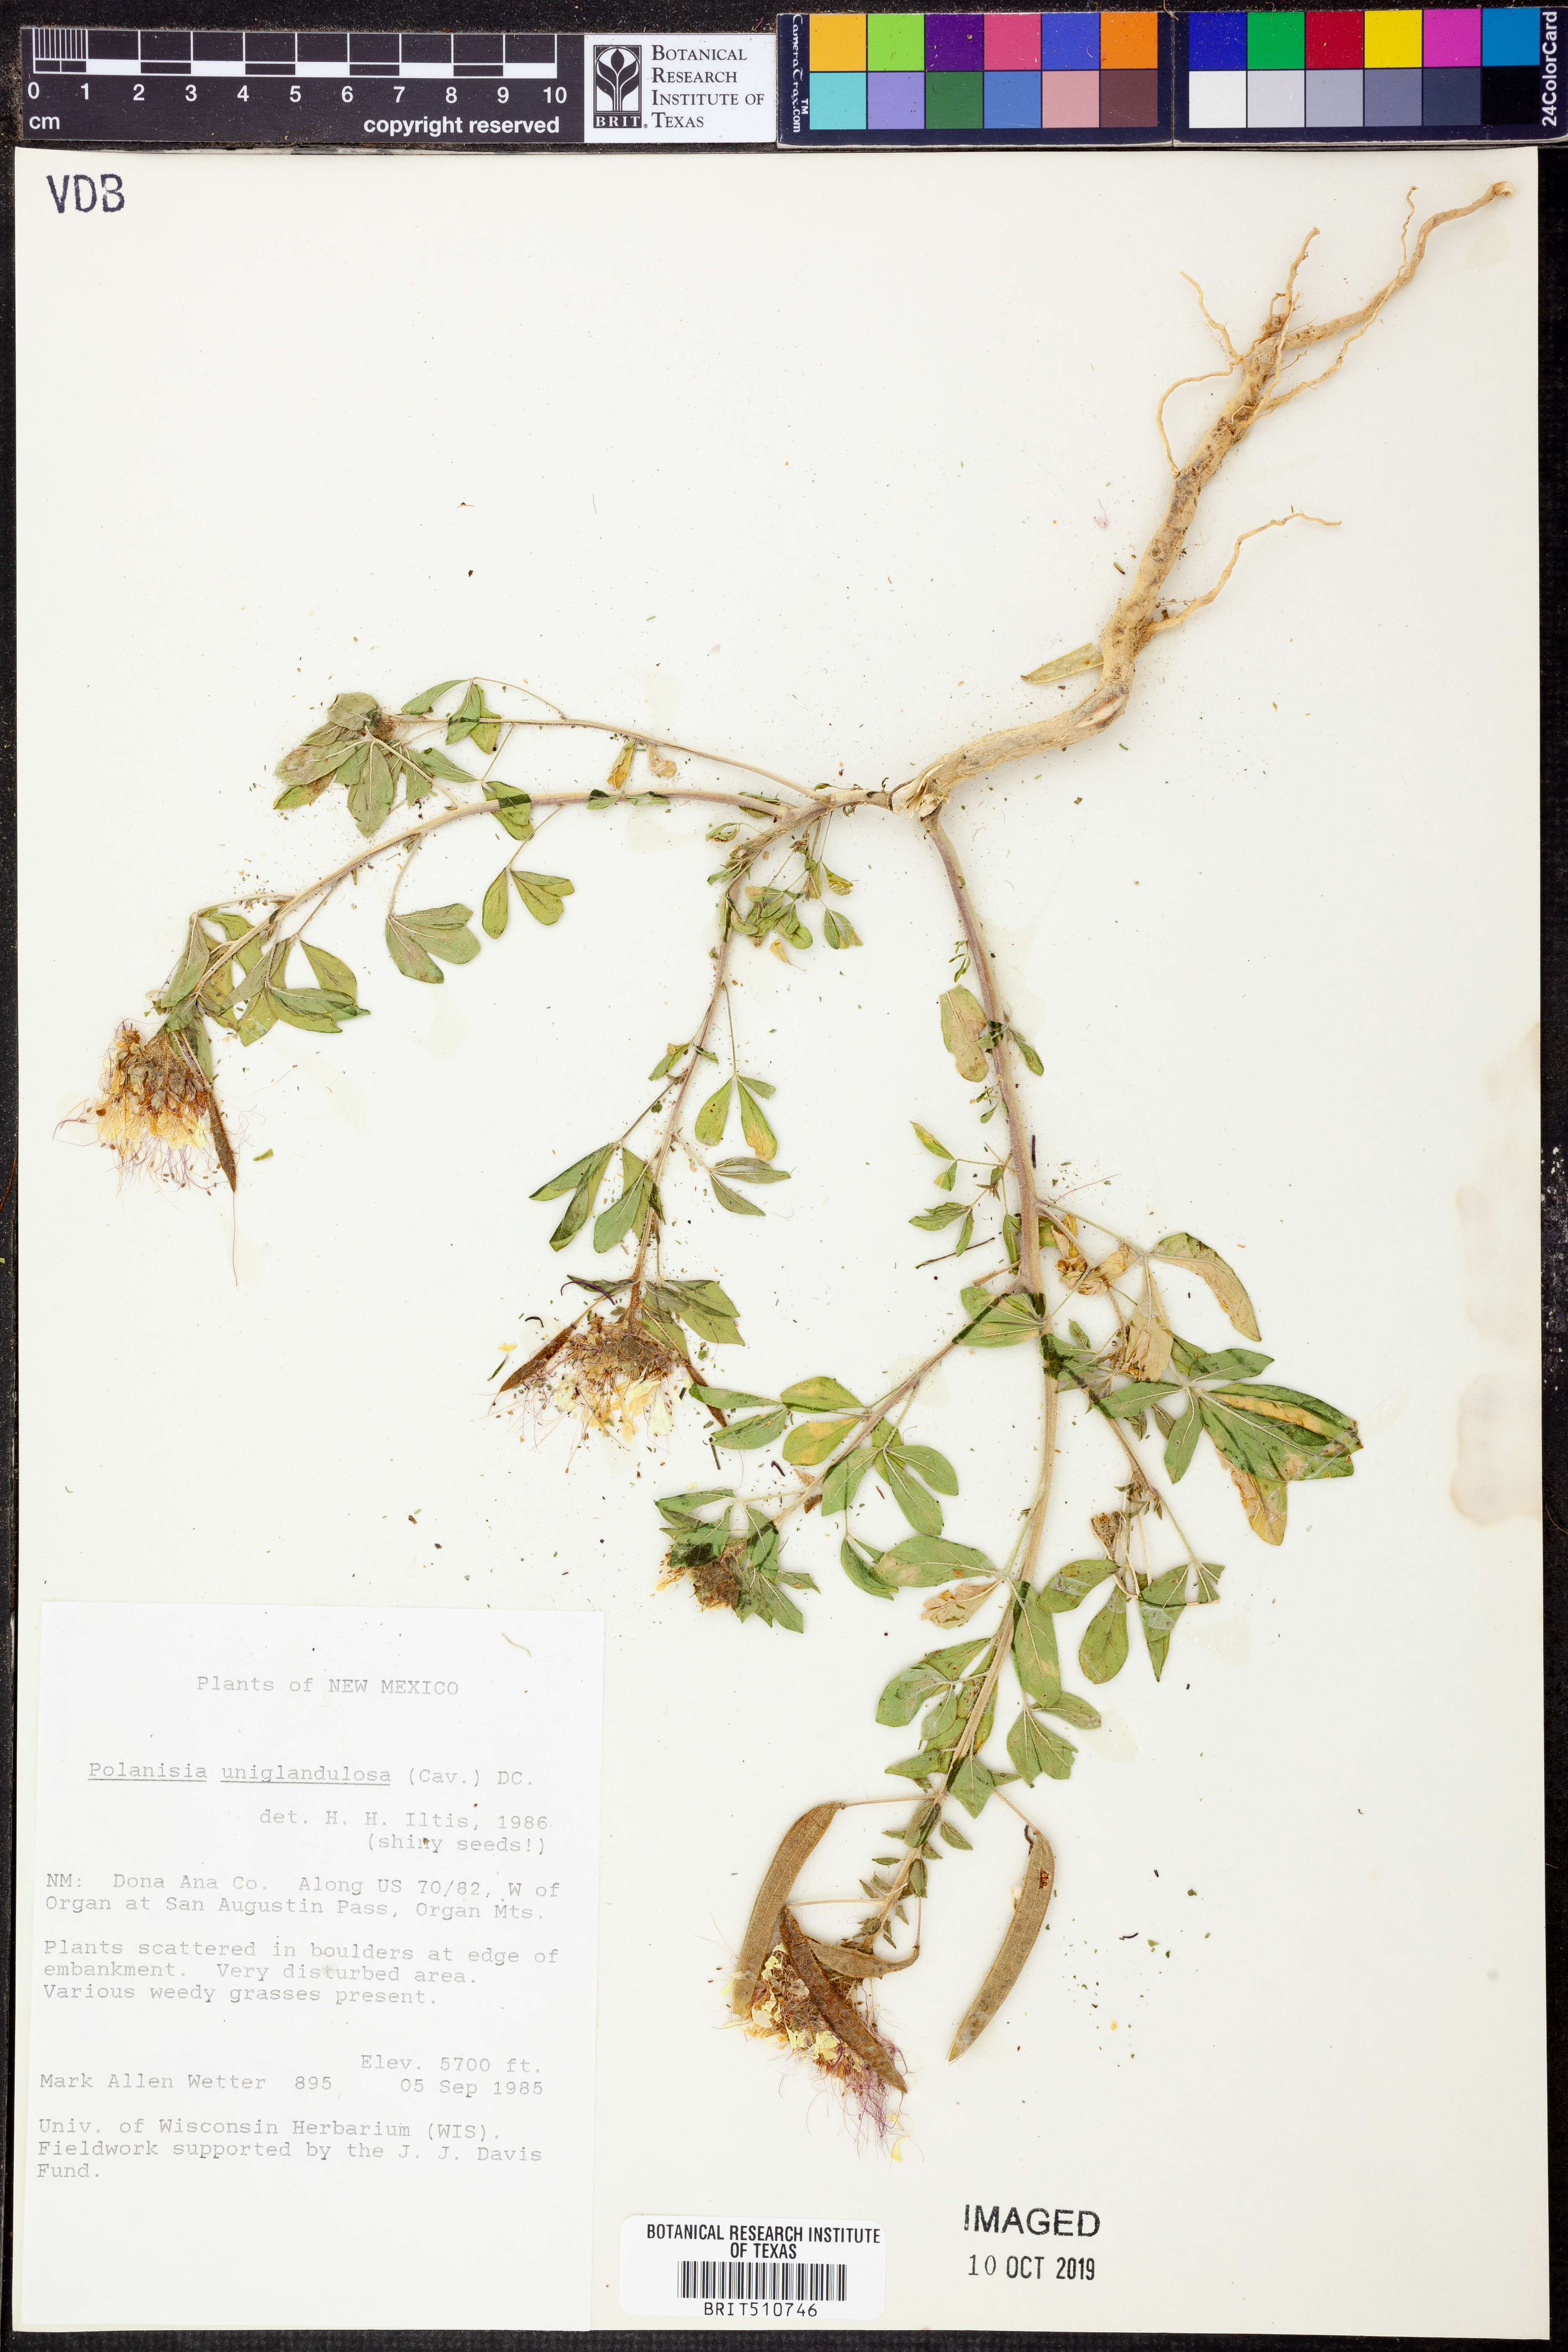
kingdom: Plantae
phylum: Tracheophyta
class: Magnoliopsida
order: Brassicales
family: Cleomaceae
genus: Polanisia
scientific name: Polanisia uniglandulosa
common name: Mexican clammyweed
